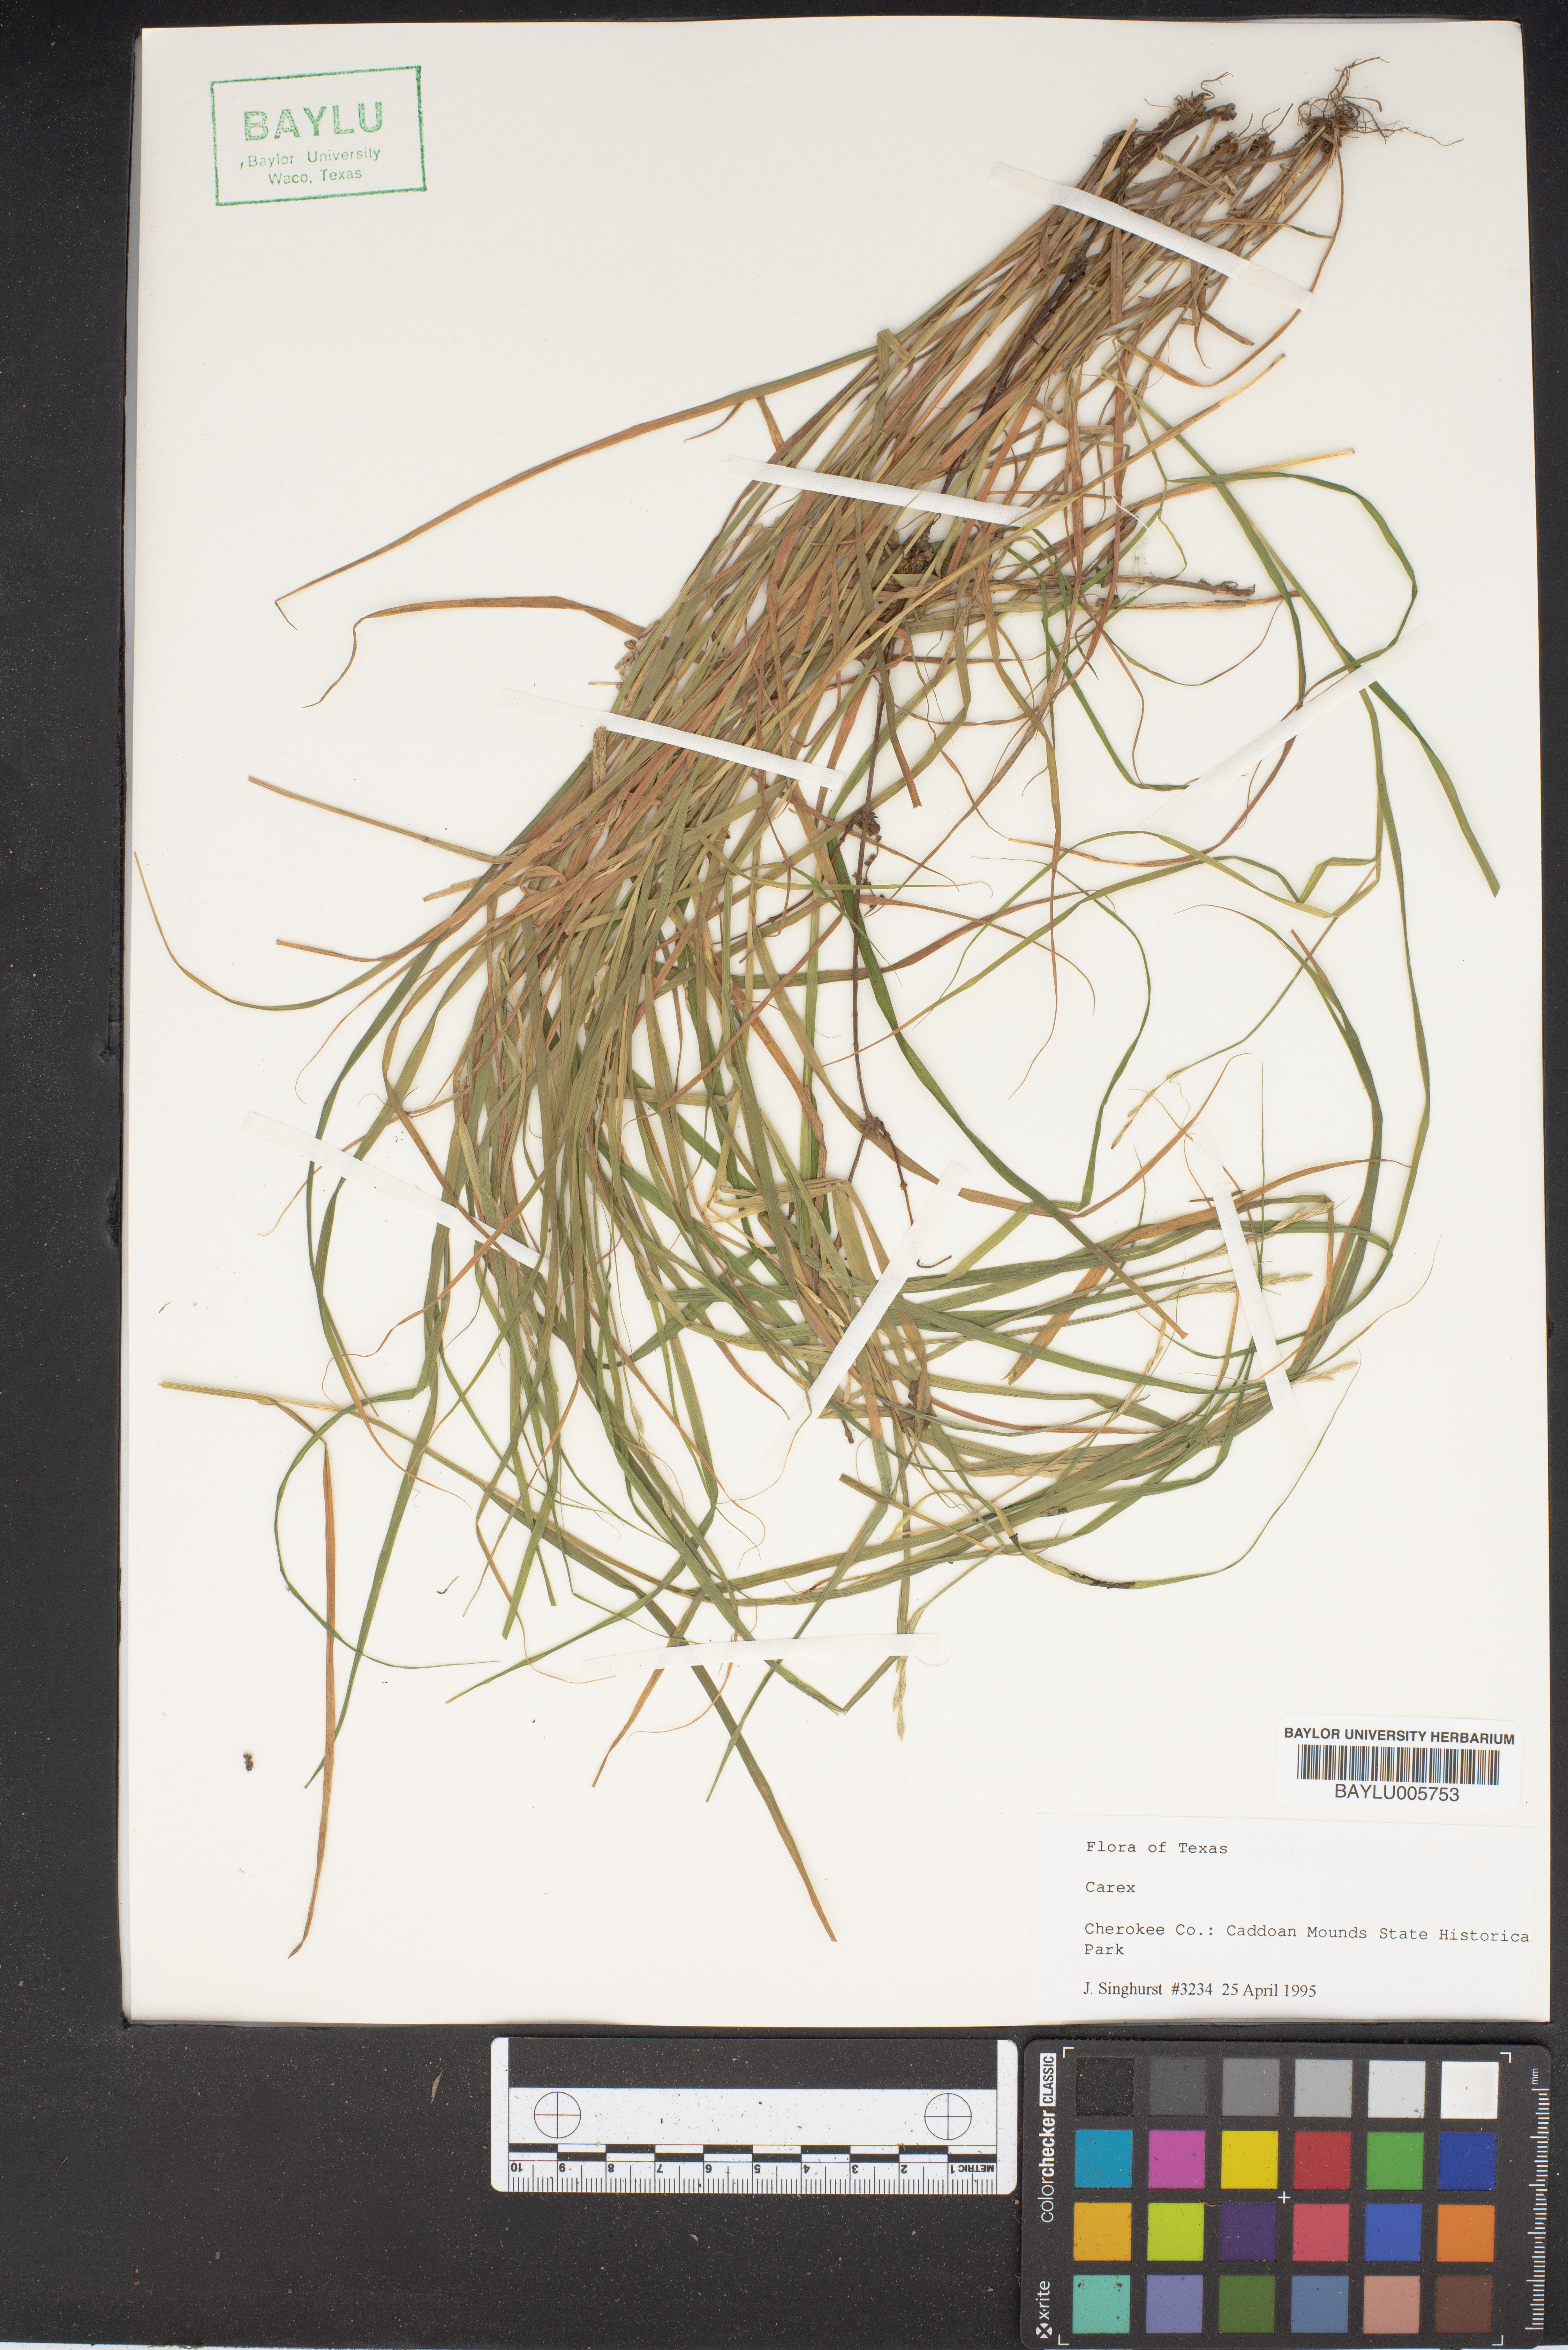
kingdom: Plantae
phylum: Tracheophyta
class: Liliopsida
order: Poales
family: Cyperaceae
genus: Carex
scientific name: Carex
